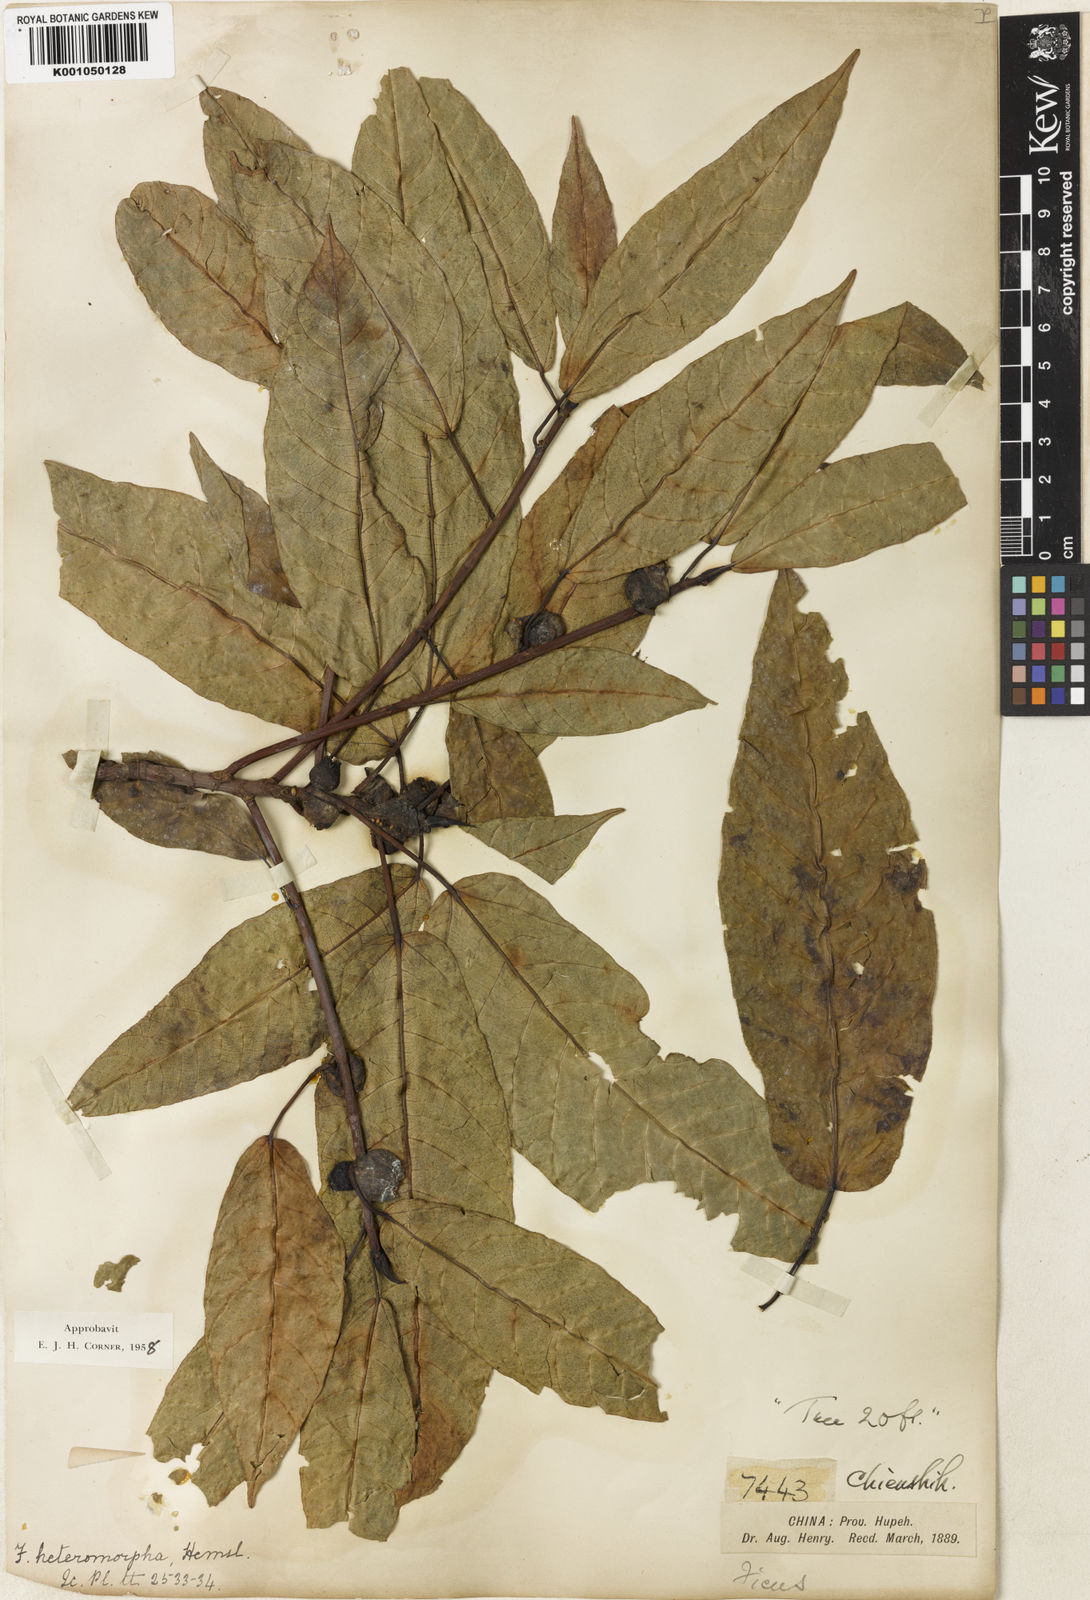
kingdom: Plantae
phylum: Tracheophyta
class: Magnoliopsida
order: Rosales
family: Moraceae
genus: Ficus
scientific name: Ficus heteromorpha
